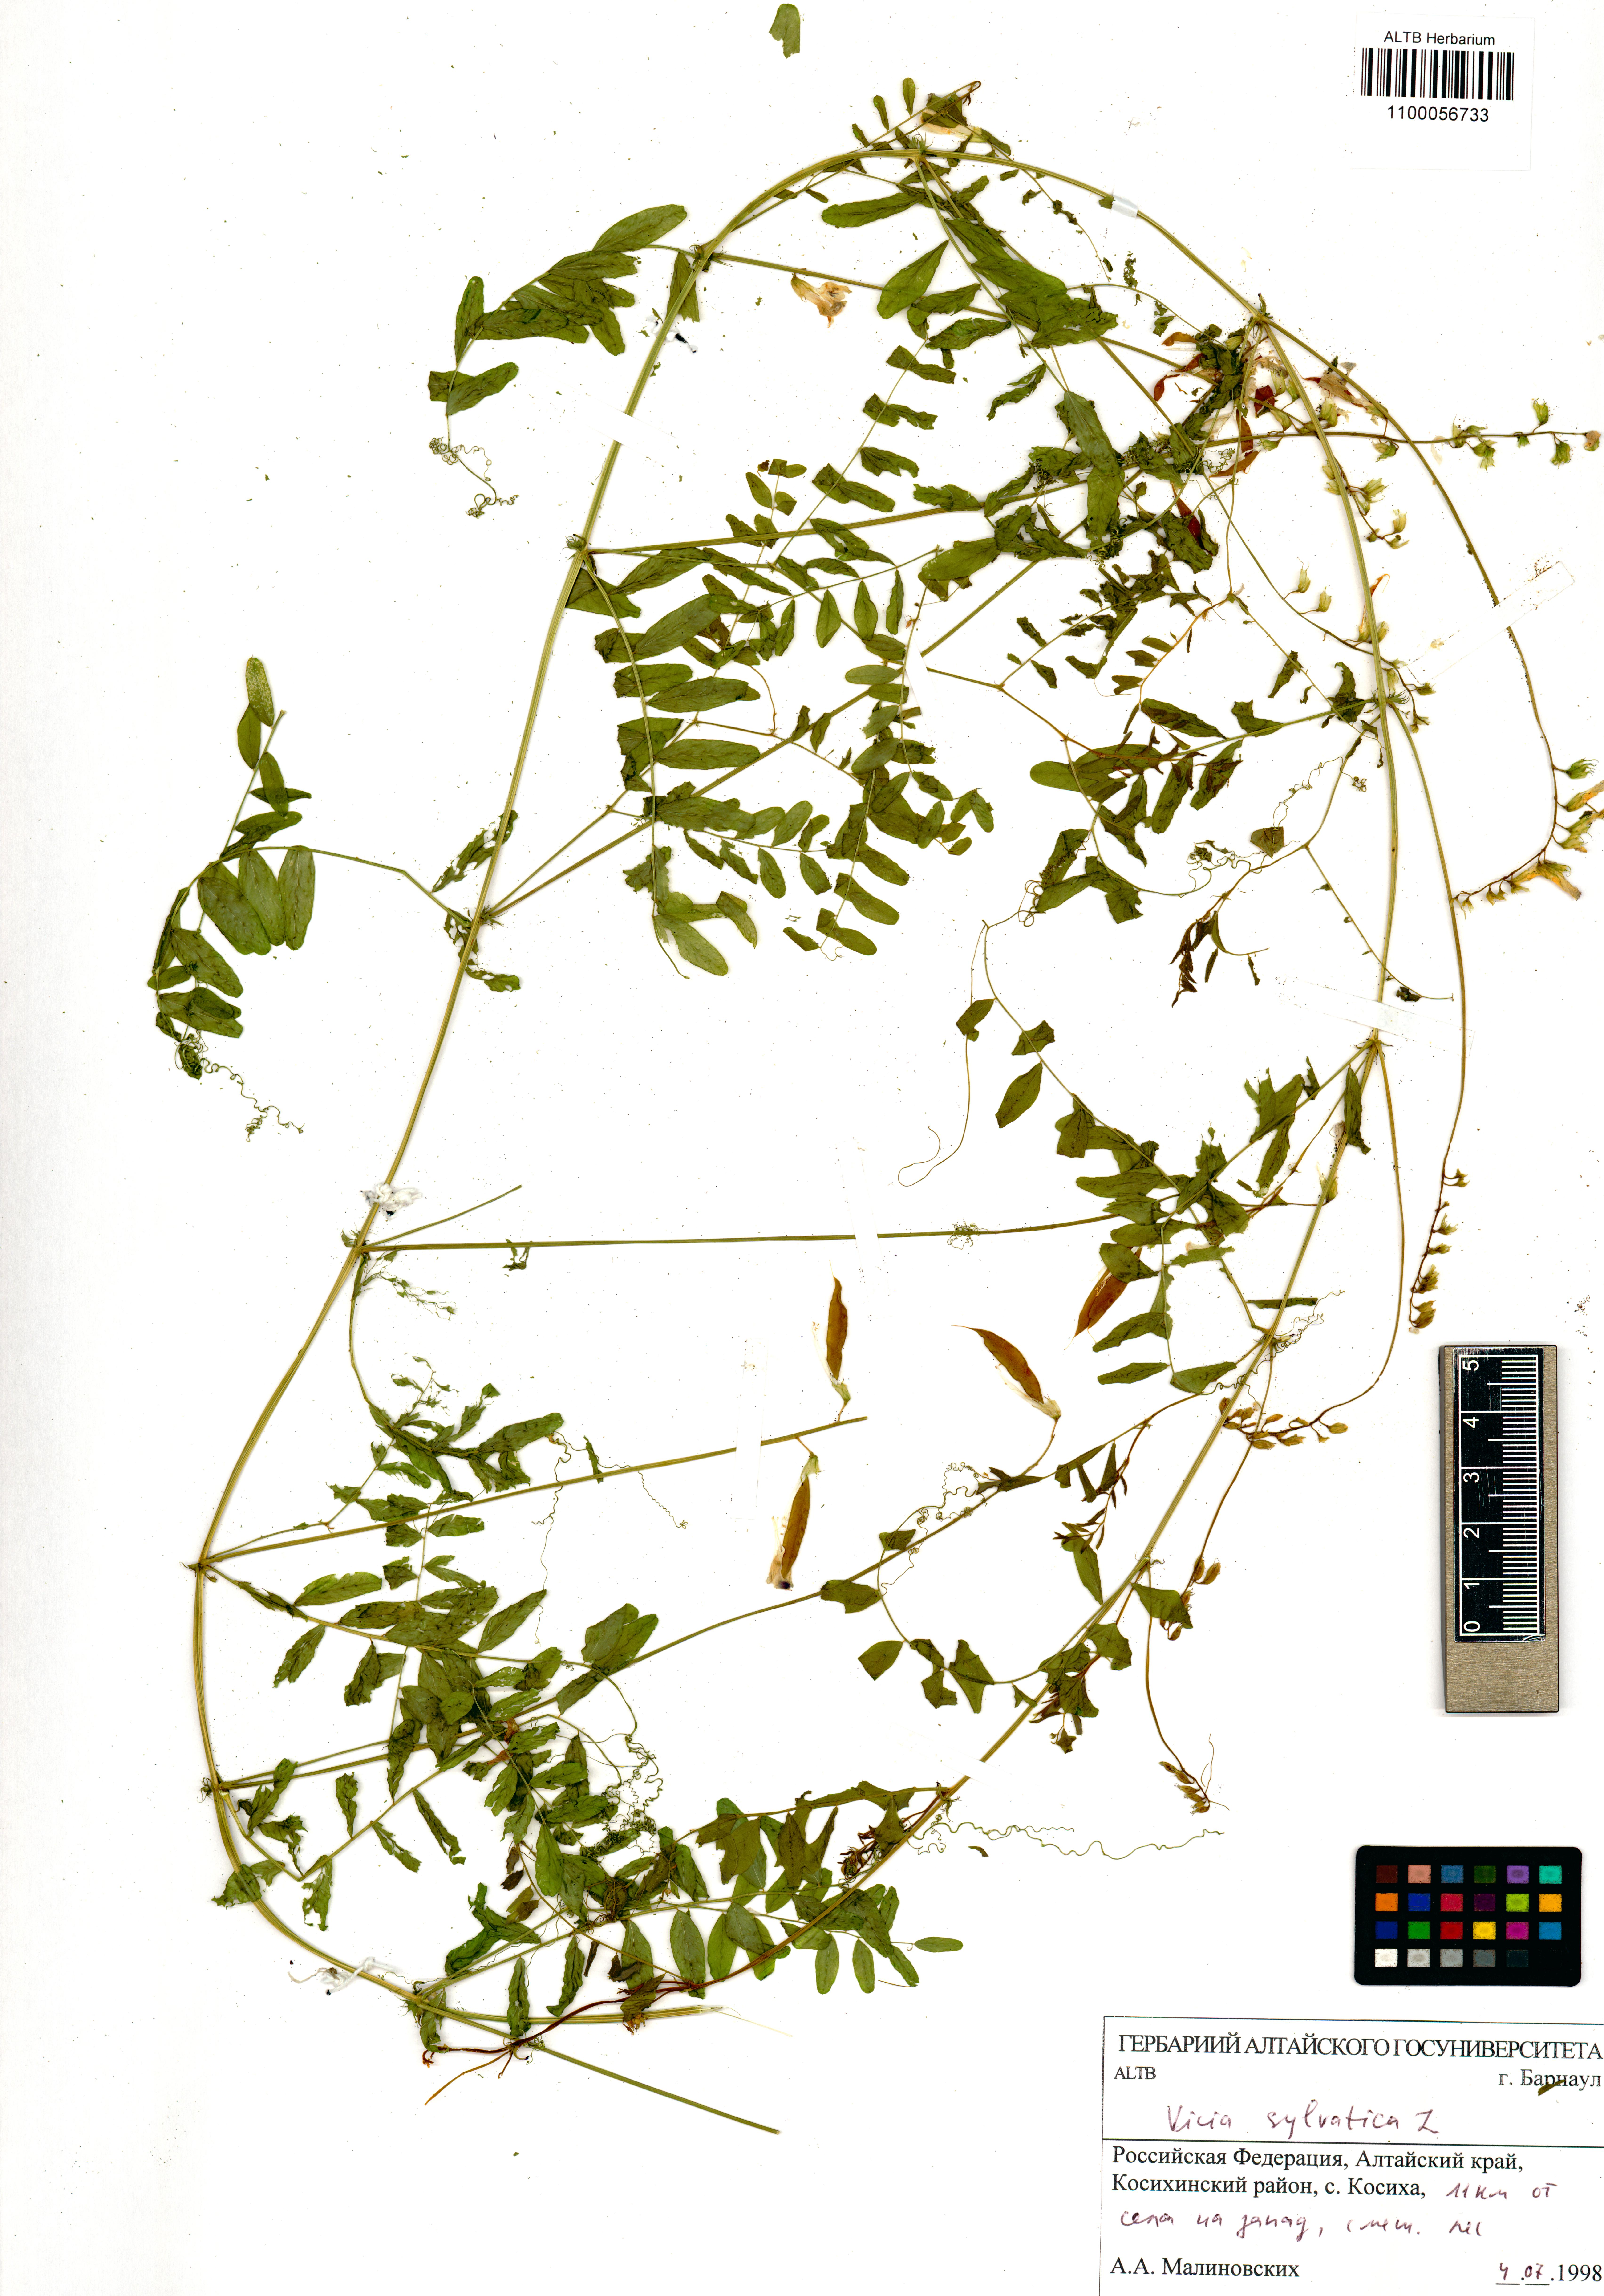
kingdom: Plantae
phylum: Tracheophyta
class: Magnoliopsida
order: Fabales
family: Fabaceae
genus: Vicia
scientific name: Vicia sylvatica
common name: Wood vetch
